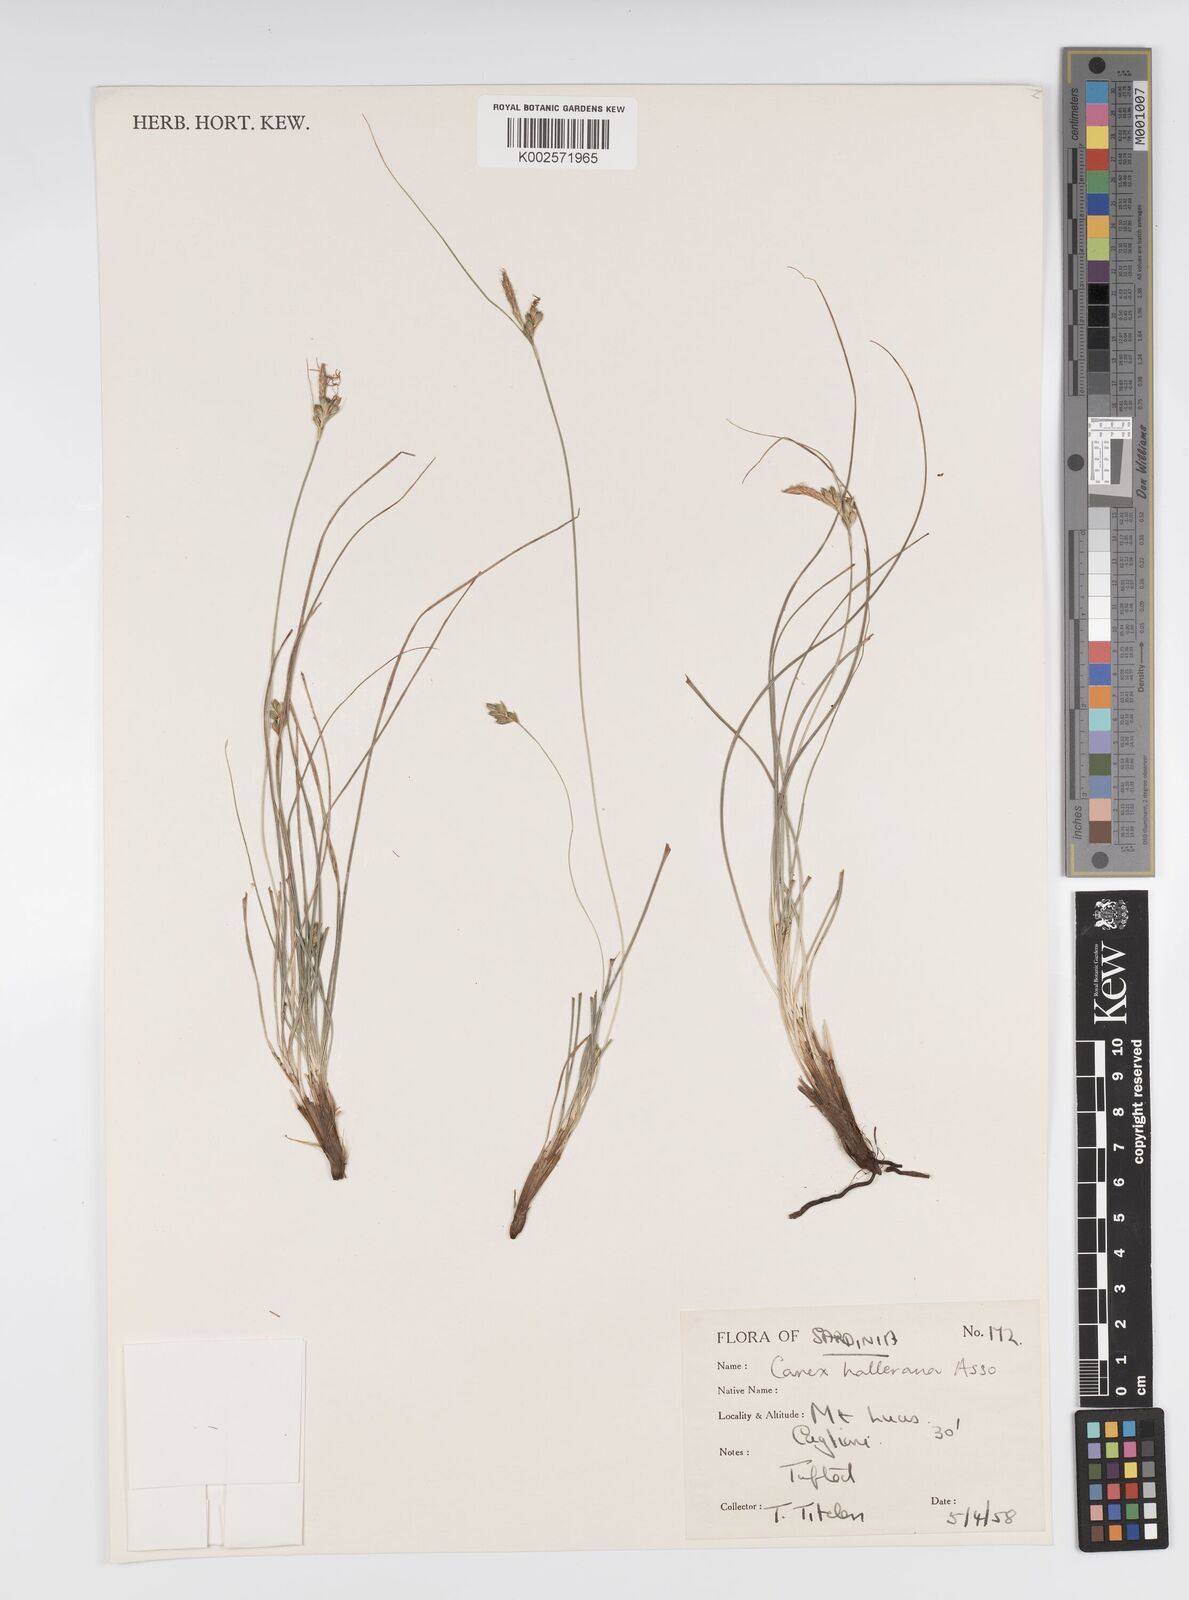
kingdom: Plantae
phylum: Tracheophyta
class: Liliopsida
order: Poales
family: Cyperaceae
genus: Carex
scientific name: Carex halleriana
